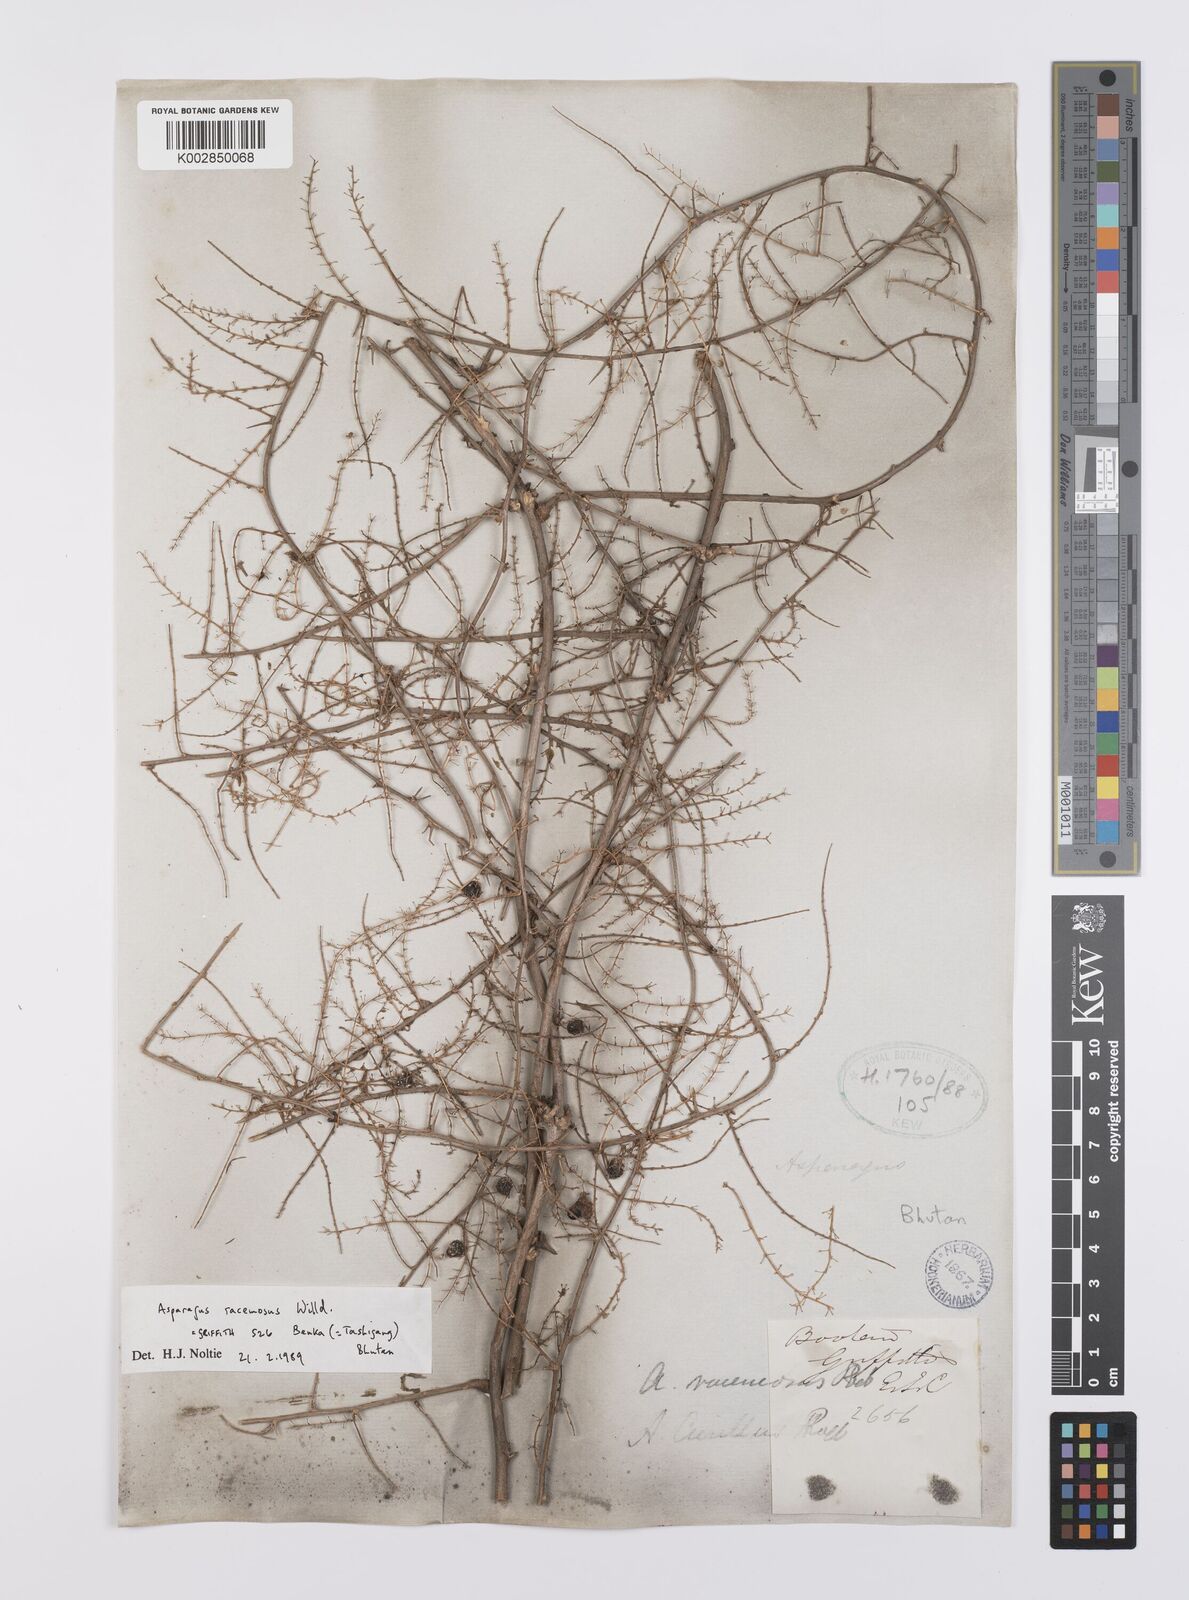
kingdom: Plantae
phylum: Tracheophyta
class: Liliopsida
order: Asparagales
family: Asparagaceae
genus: Asparagus
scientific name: Asparagus racemosus
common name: Asparagus-fern
